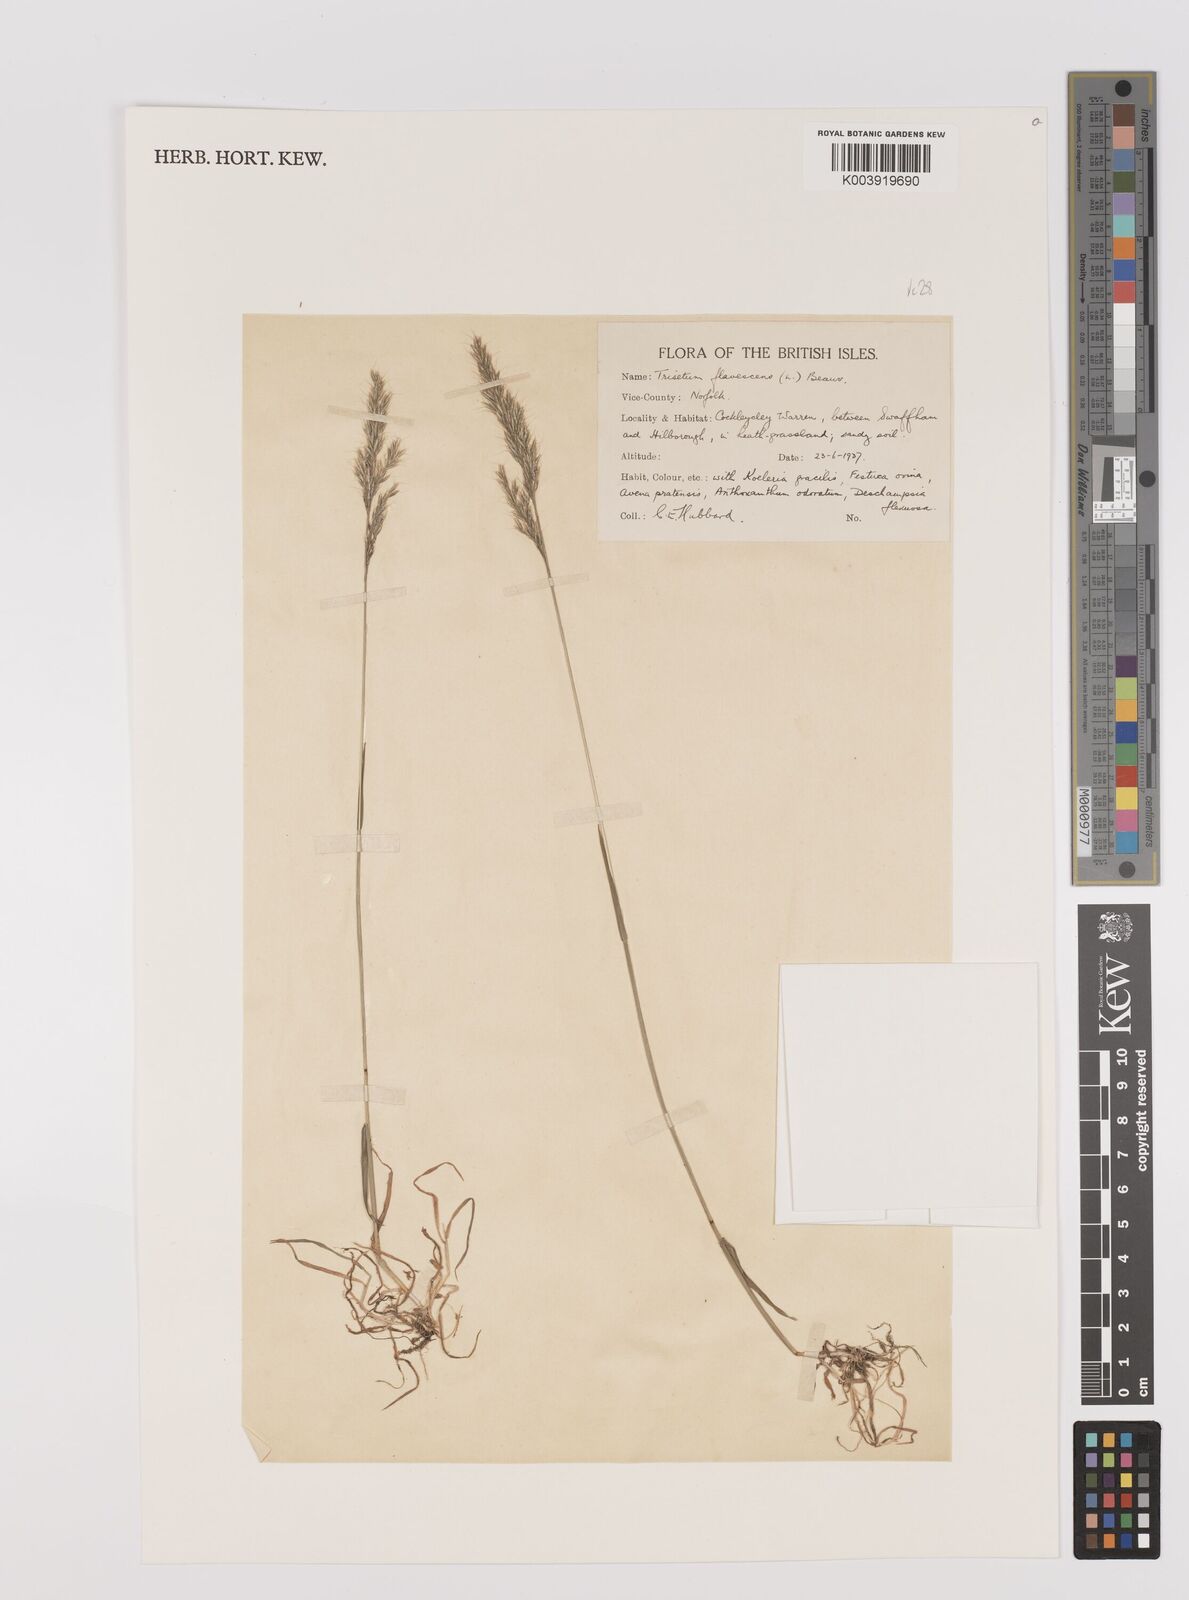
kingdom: Plantae
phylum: Tracheophyta
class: Liliopsida
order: Poales
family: Poaceae
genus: Trisetum
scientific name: Trisetum flavescens
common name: Yellow oat-grass
